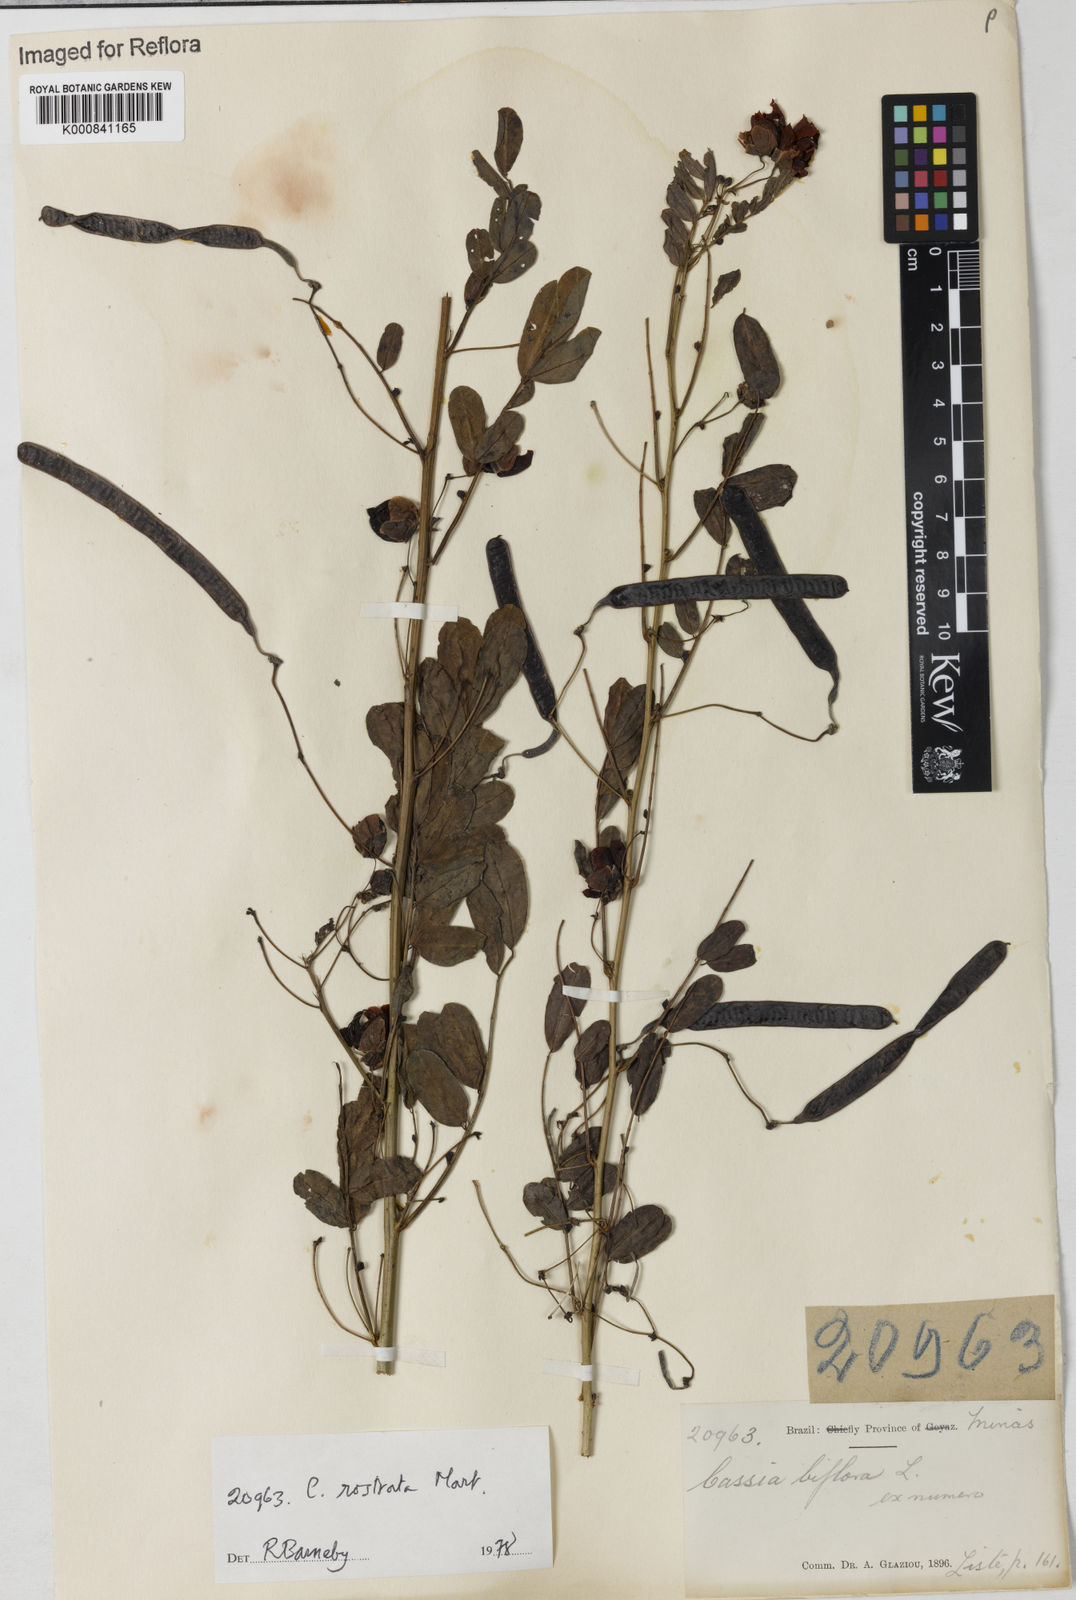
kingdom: Plantae
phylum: Tracheophyta
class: Magnoliopsida
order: Fabales
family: Fabaceae
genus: Senna
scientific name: Senna rostrata
